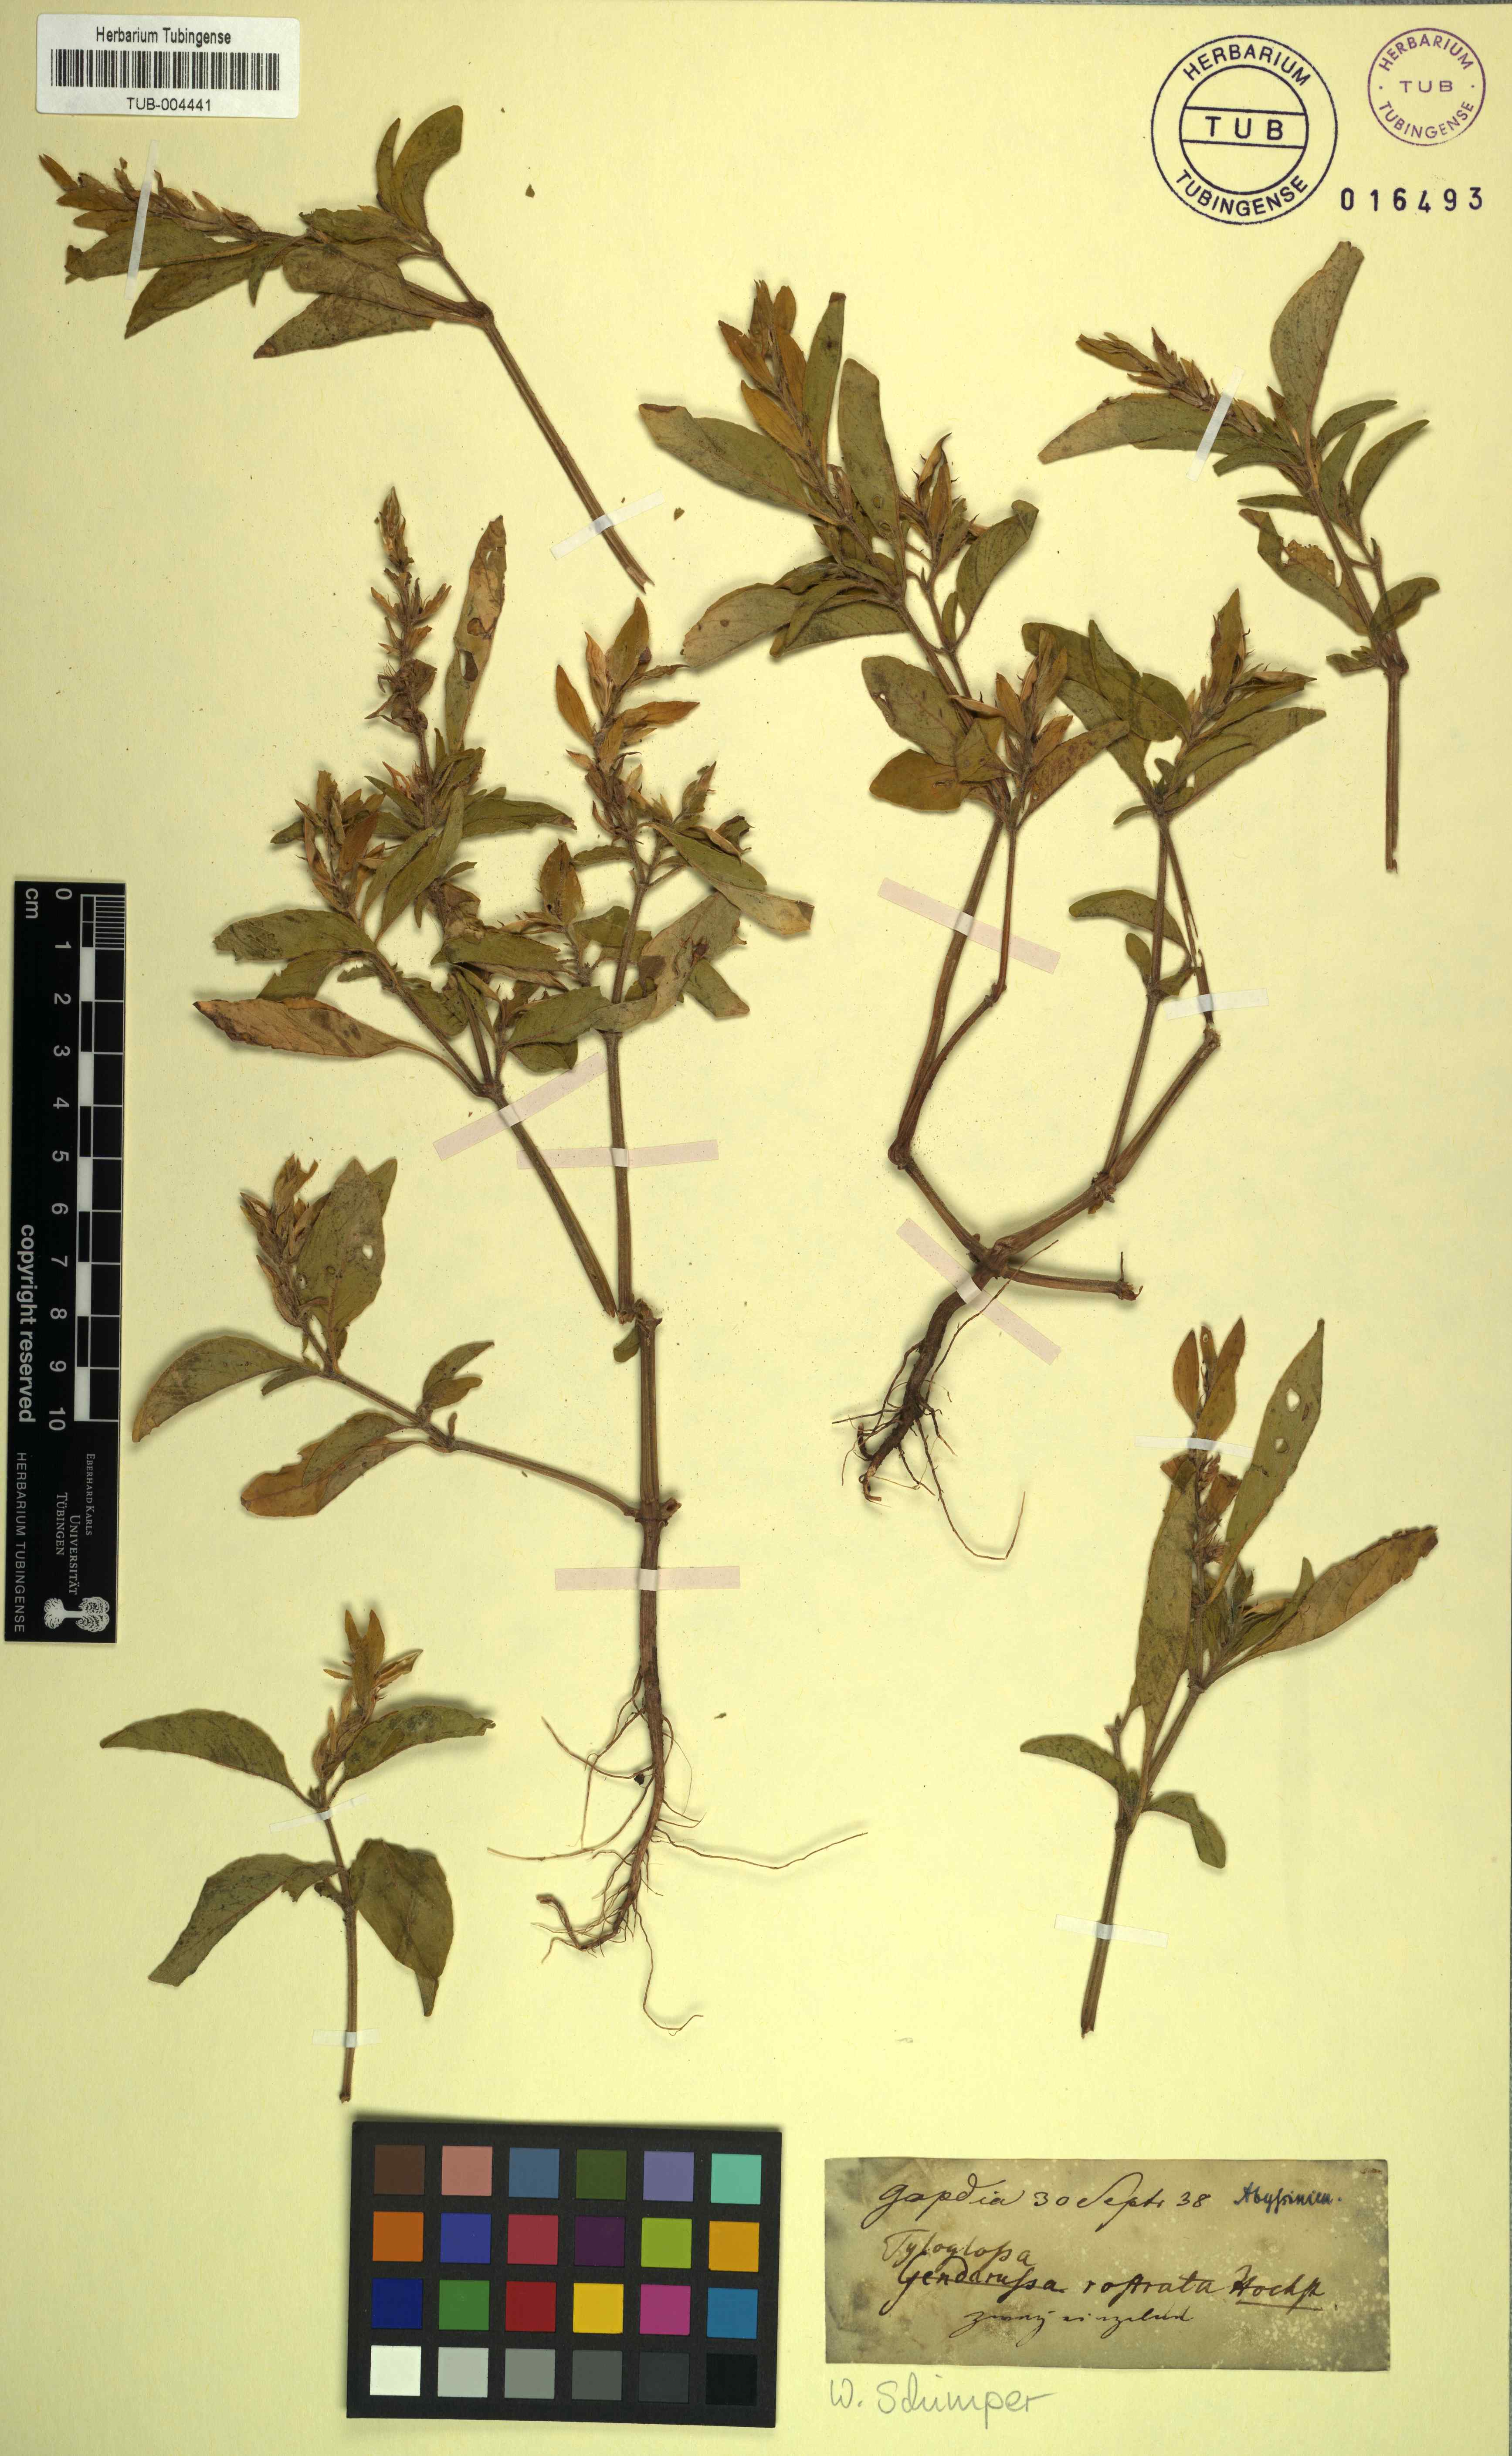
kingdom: Plantae
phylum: Tracheophyta
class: Magnoliopsida
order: Lamiales
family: Acanthaceae
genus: Justicia
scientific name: Justicia schimperiana
